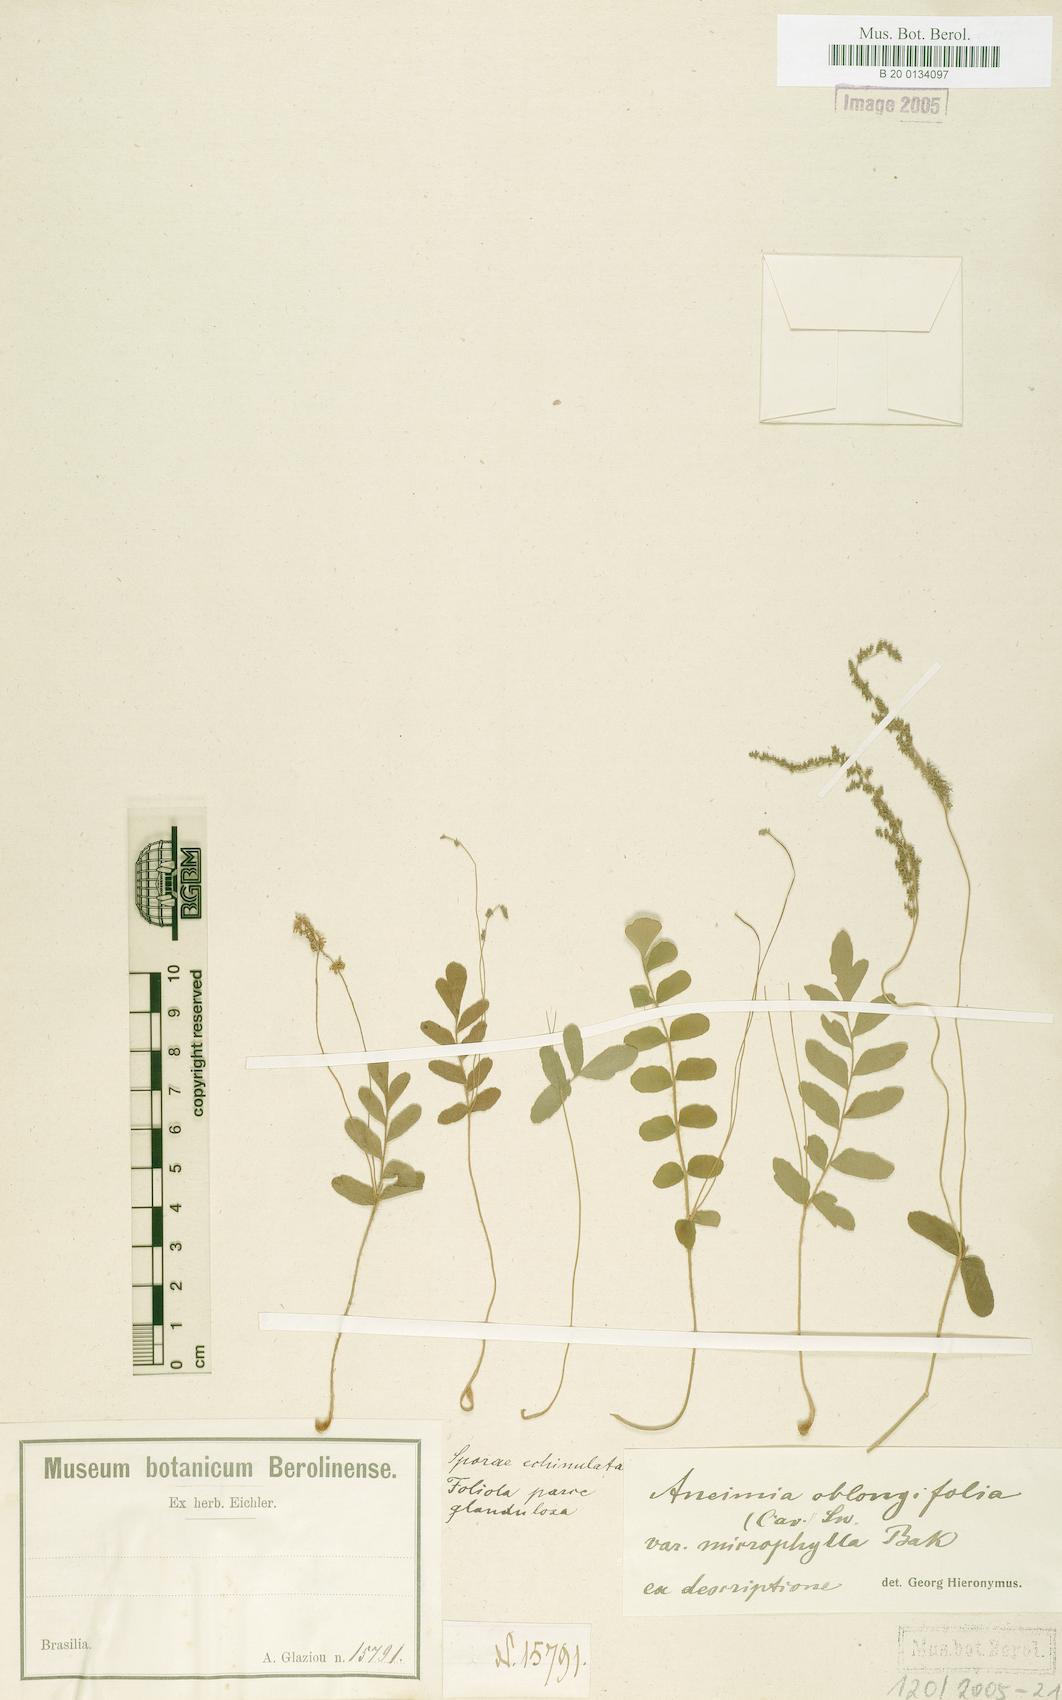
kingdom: Plantae
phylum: Tracheophyta
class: Polypodiopsida
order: Schizaeales
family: Anemiaceae
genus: Anemia
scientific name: Anemia presliana
